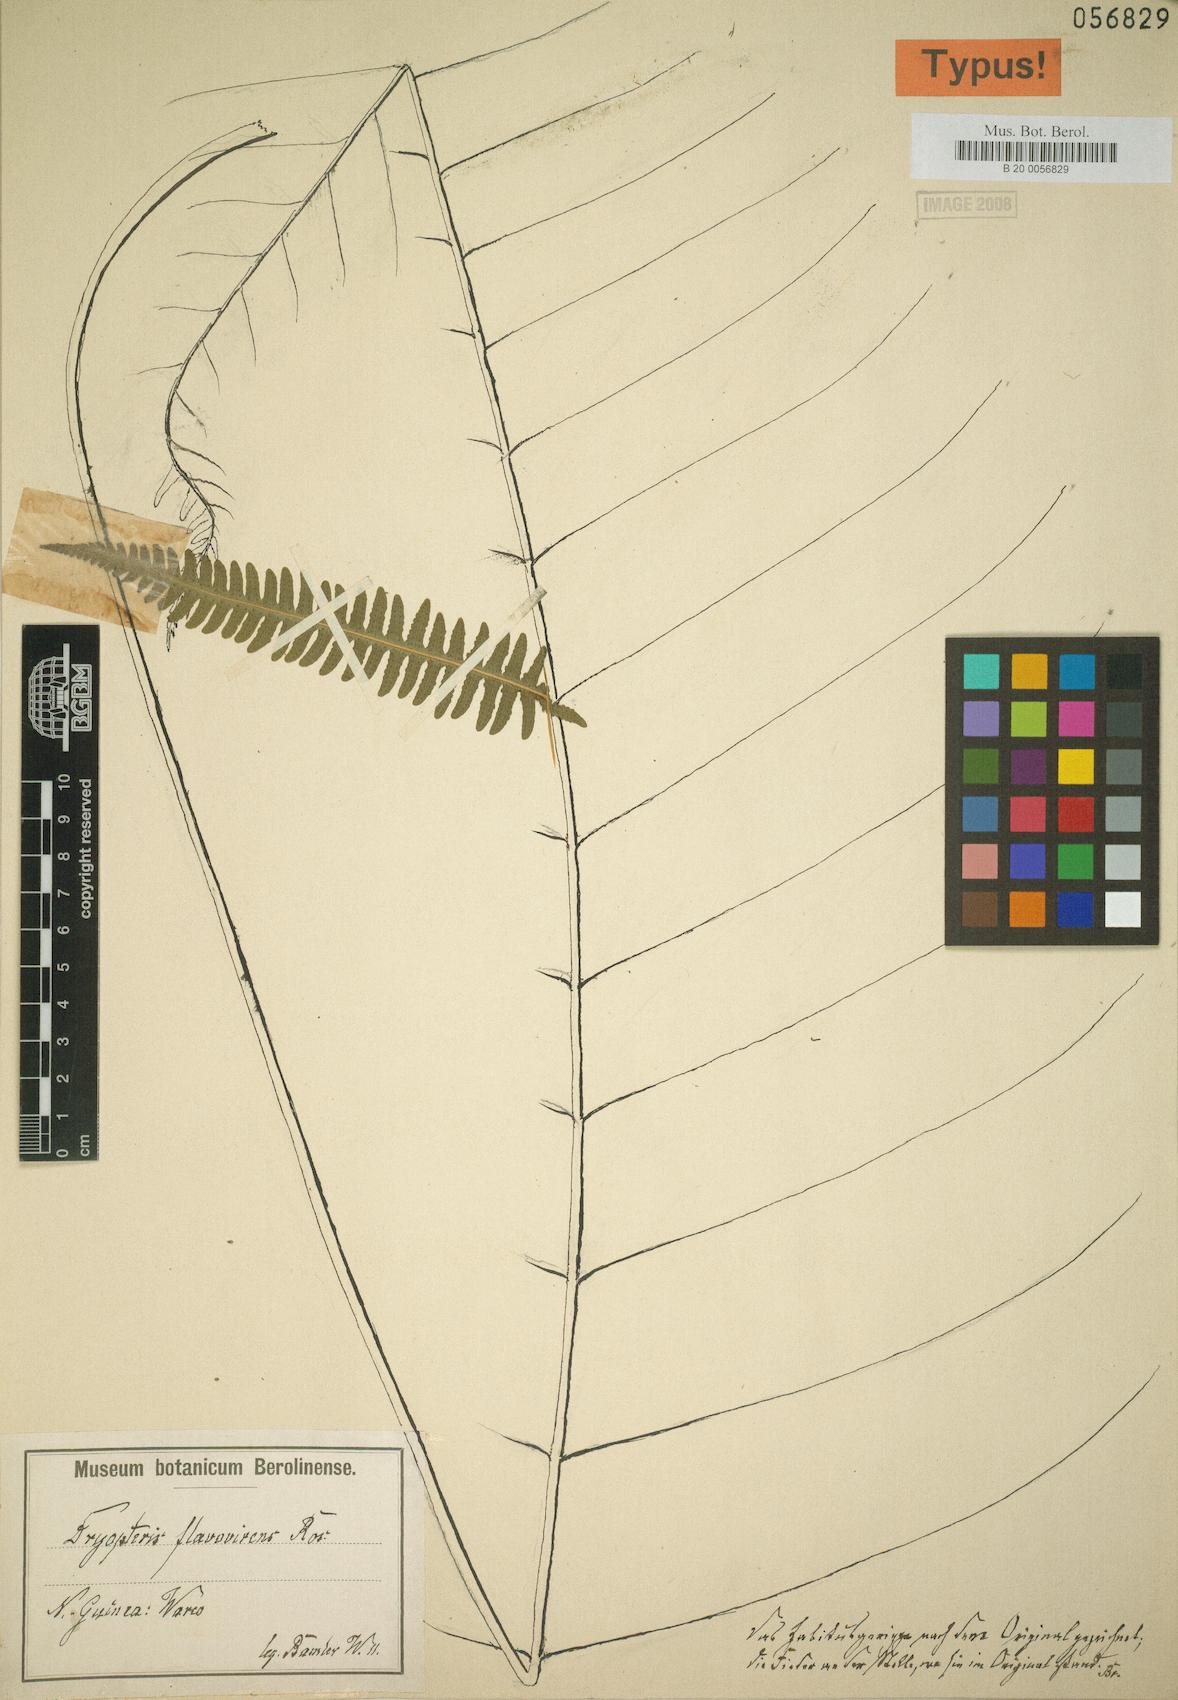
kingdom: Plantae
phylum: Tracheophyta
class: Polypodiopsida
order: Polypodiales
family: Thelypteridaceae
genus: Metathelypteris
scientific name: Metathelypteris dayi
